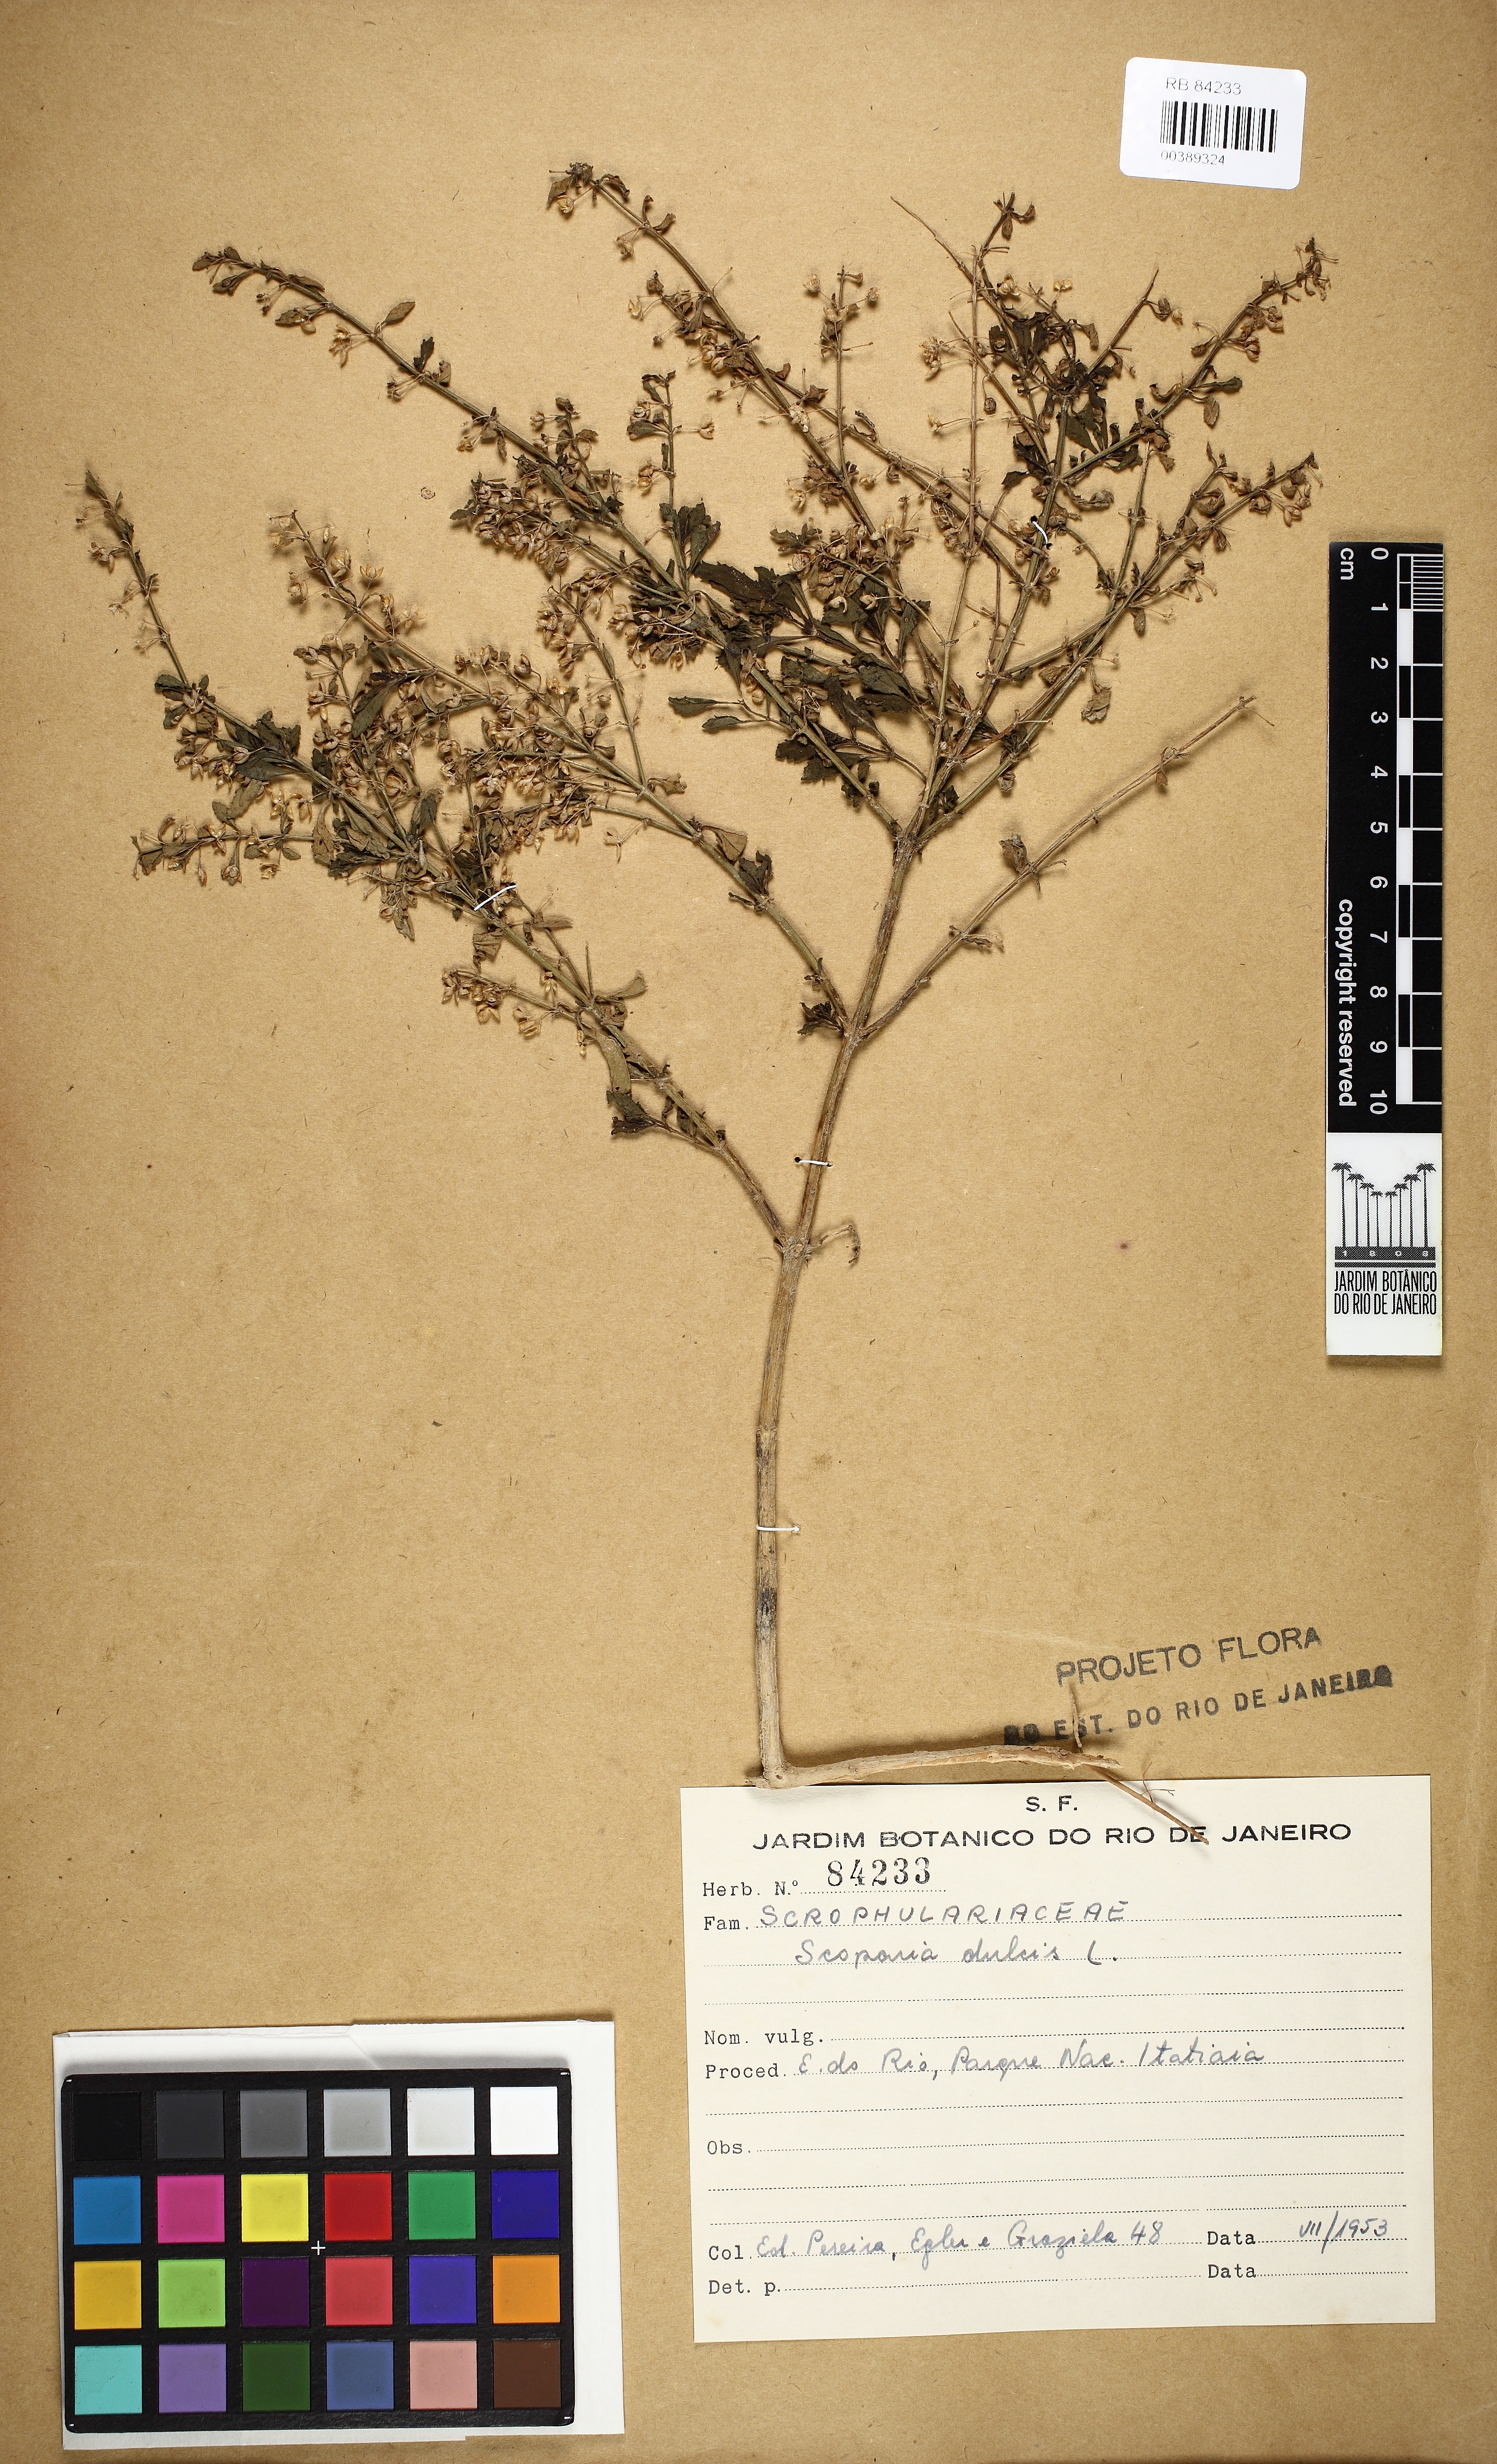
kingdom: Plantae
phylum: Tracheophyta
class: Magnoliopsida
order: Lamiales
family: Plantaginaceae
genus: Scoparia
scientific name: Scoparia dulcis
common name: Scoparia-weed
